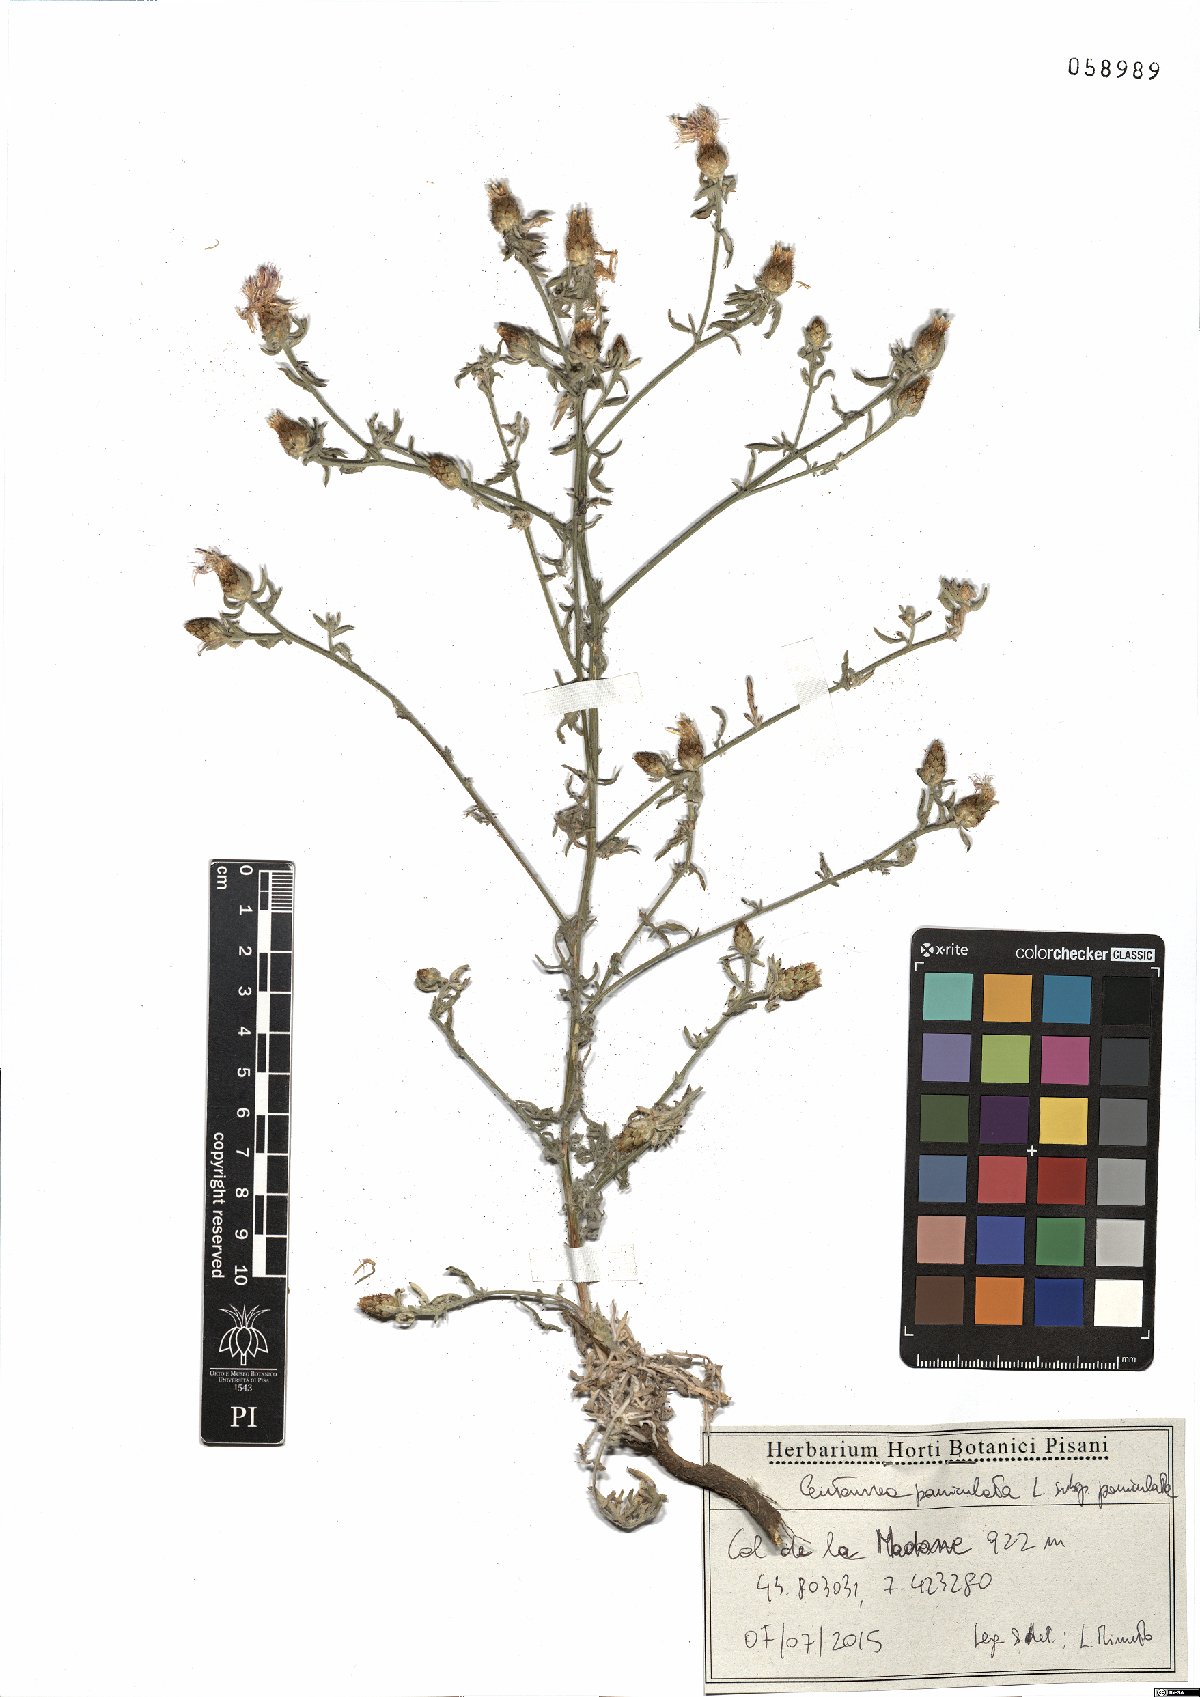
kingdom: Plantae
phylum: Tracheophyta
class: Magnoliopsida
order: Asterales
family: Asteraceae
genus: Centaurea
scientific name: Centaurea paniculata
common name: Jersey knapweed
